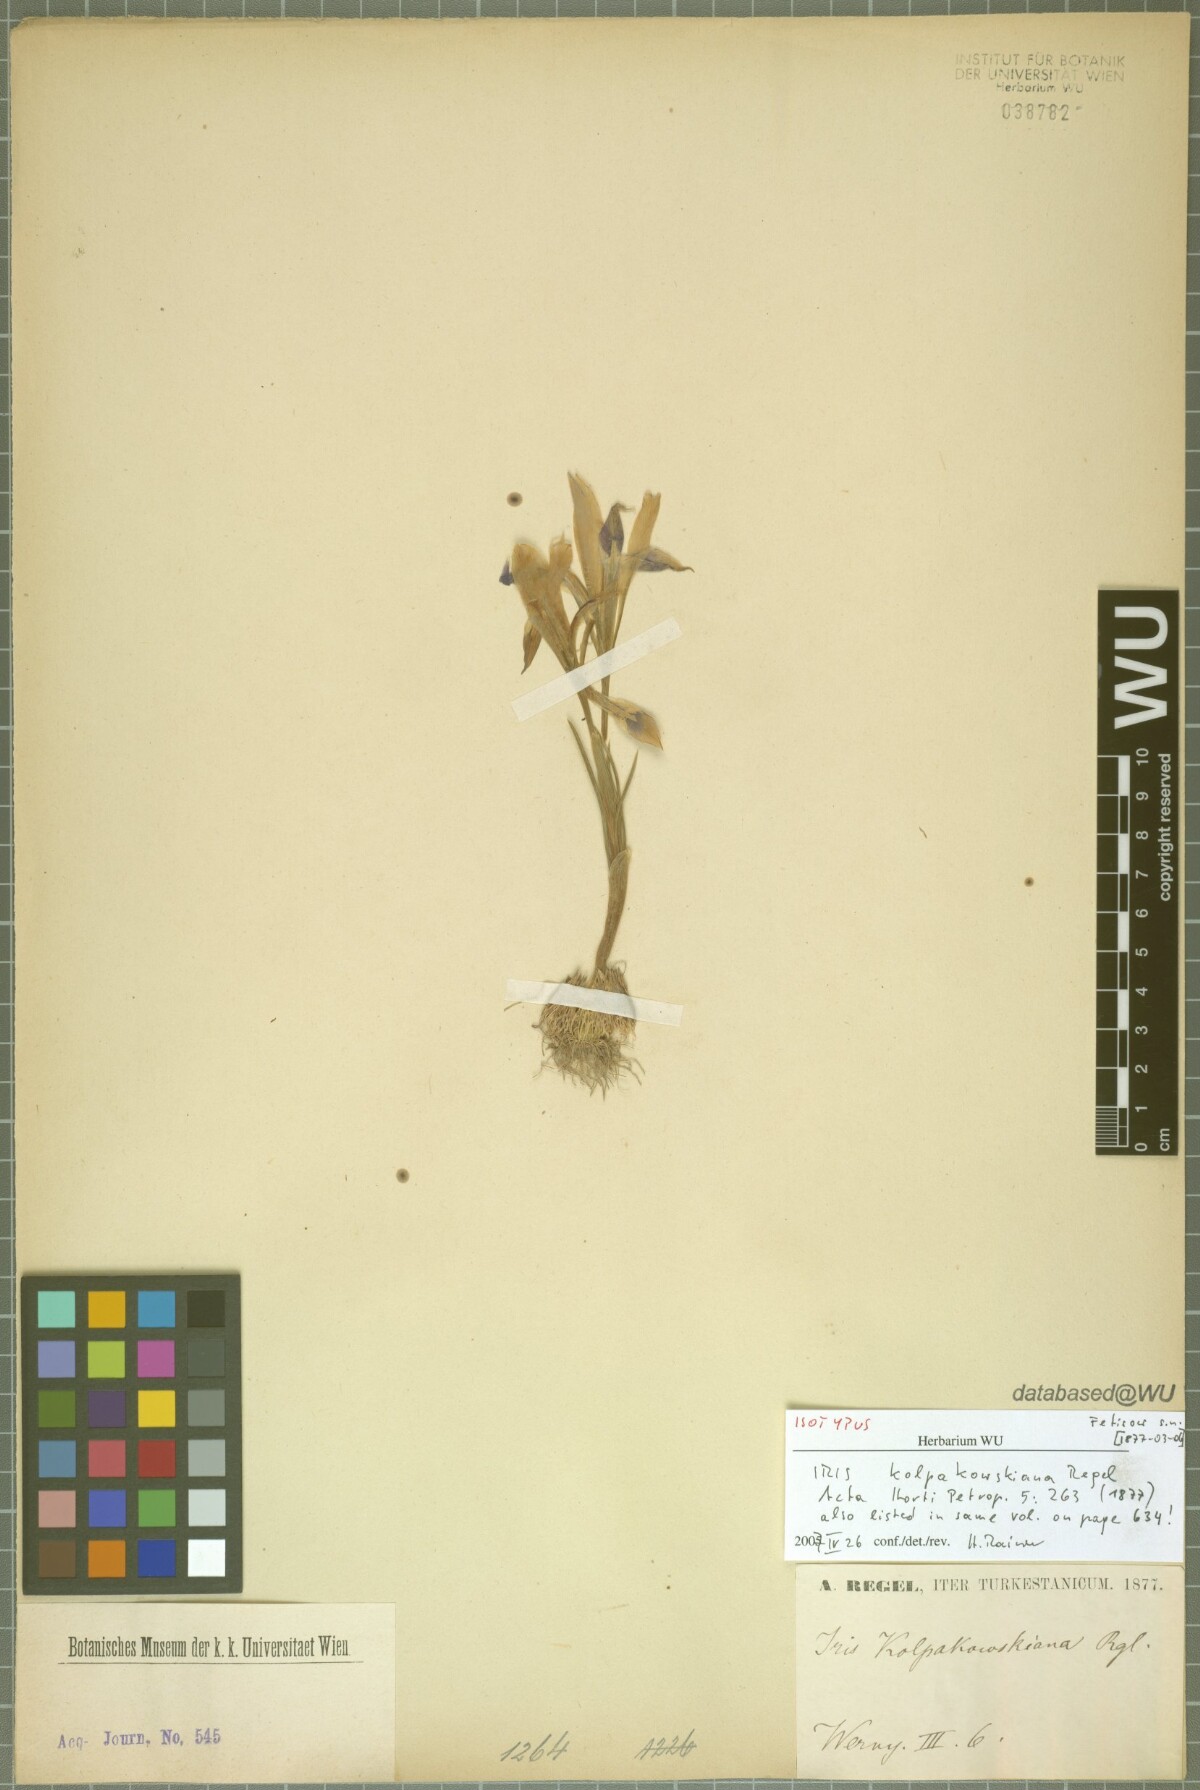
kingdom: Plantae
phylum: Tracheophyta
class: Liliopsida
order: Asparagales
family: Iridaceae
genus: Iris
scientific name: Iris kolpakowskiana
